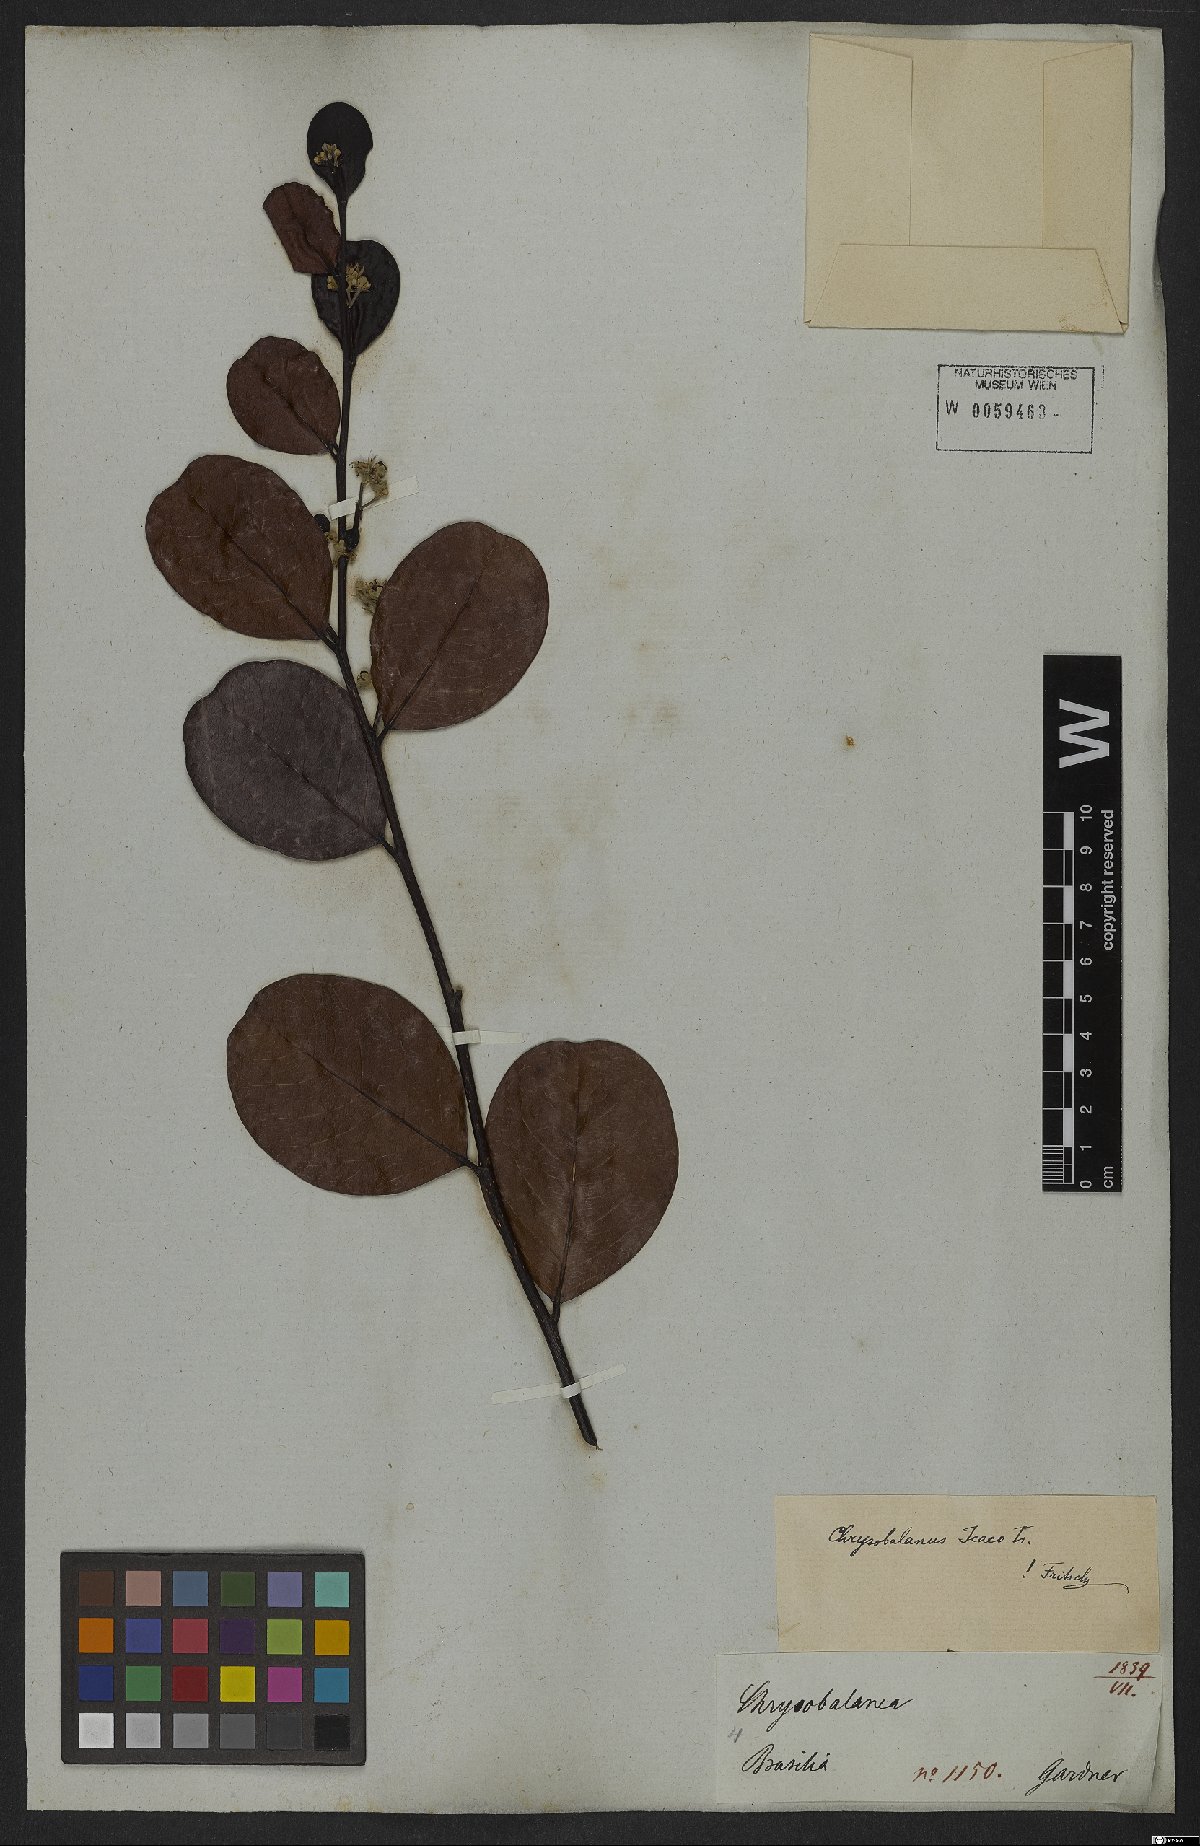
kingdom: Plantae
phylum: Tracheophyta
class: Magnoliopsida
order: Malpighiales
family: Chrysobalanaceae
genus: Chrysobalanus
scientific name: Chrysobalanus icaco
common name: Coco plum
